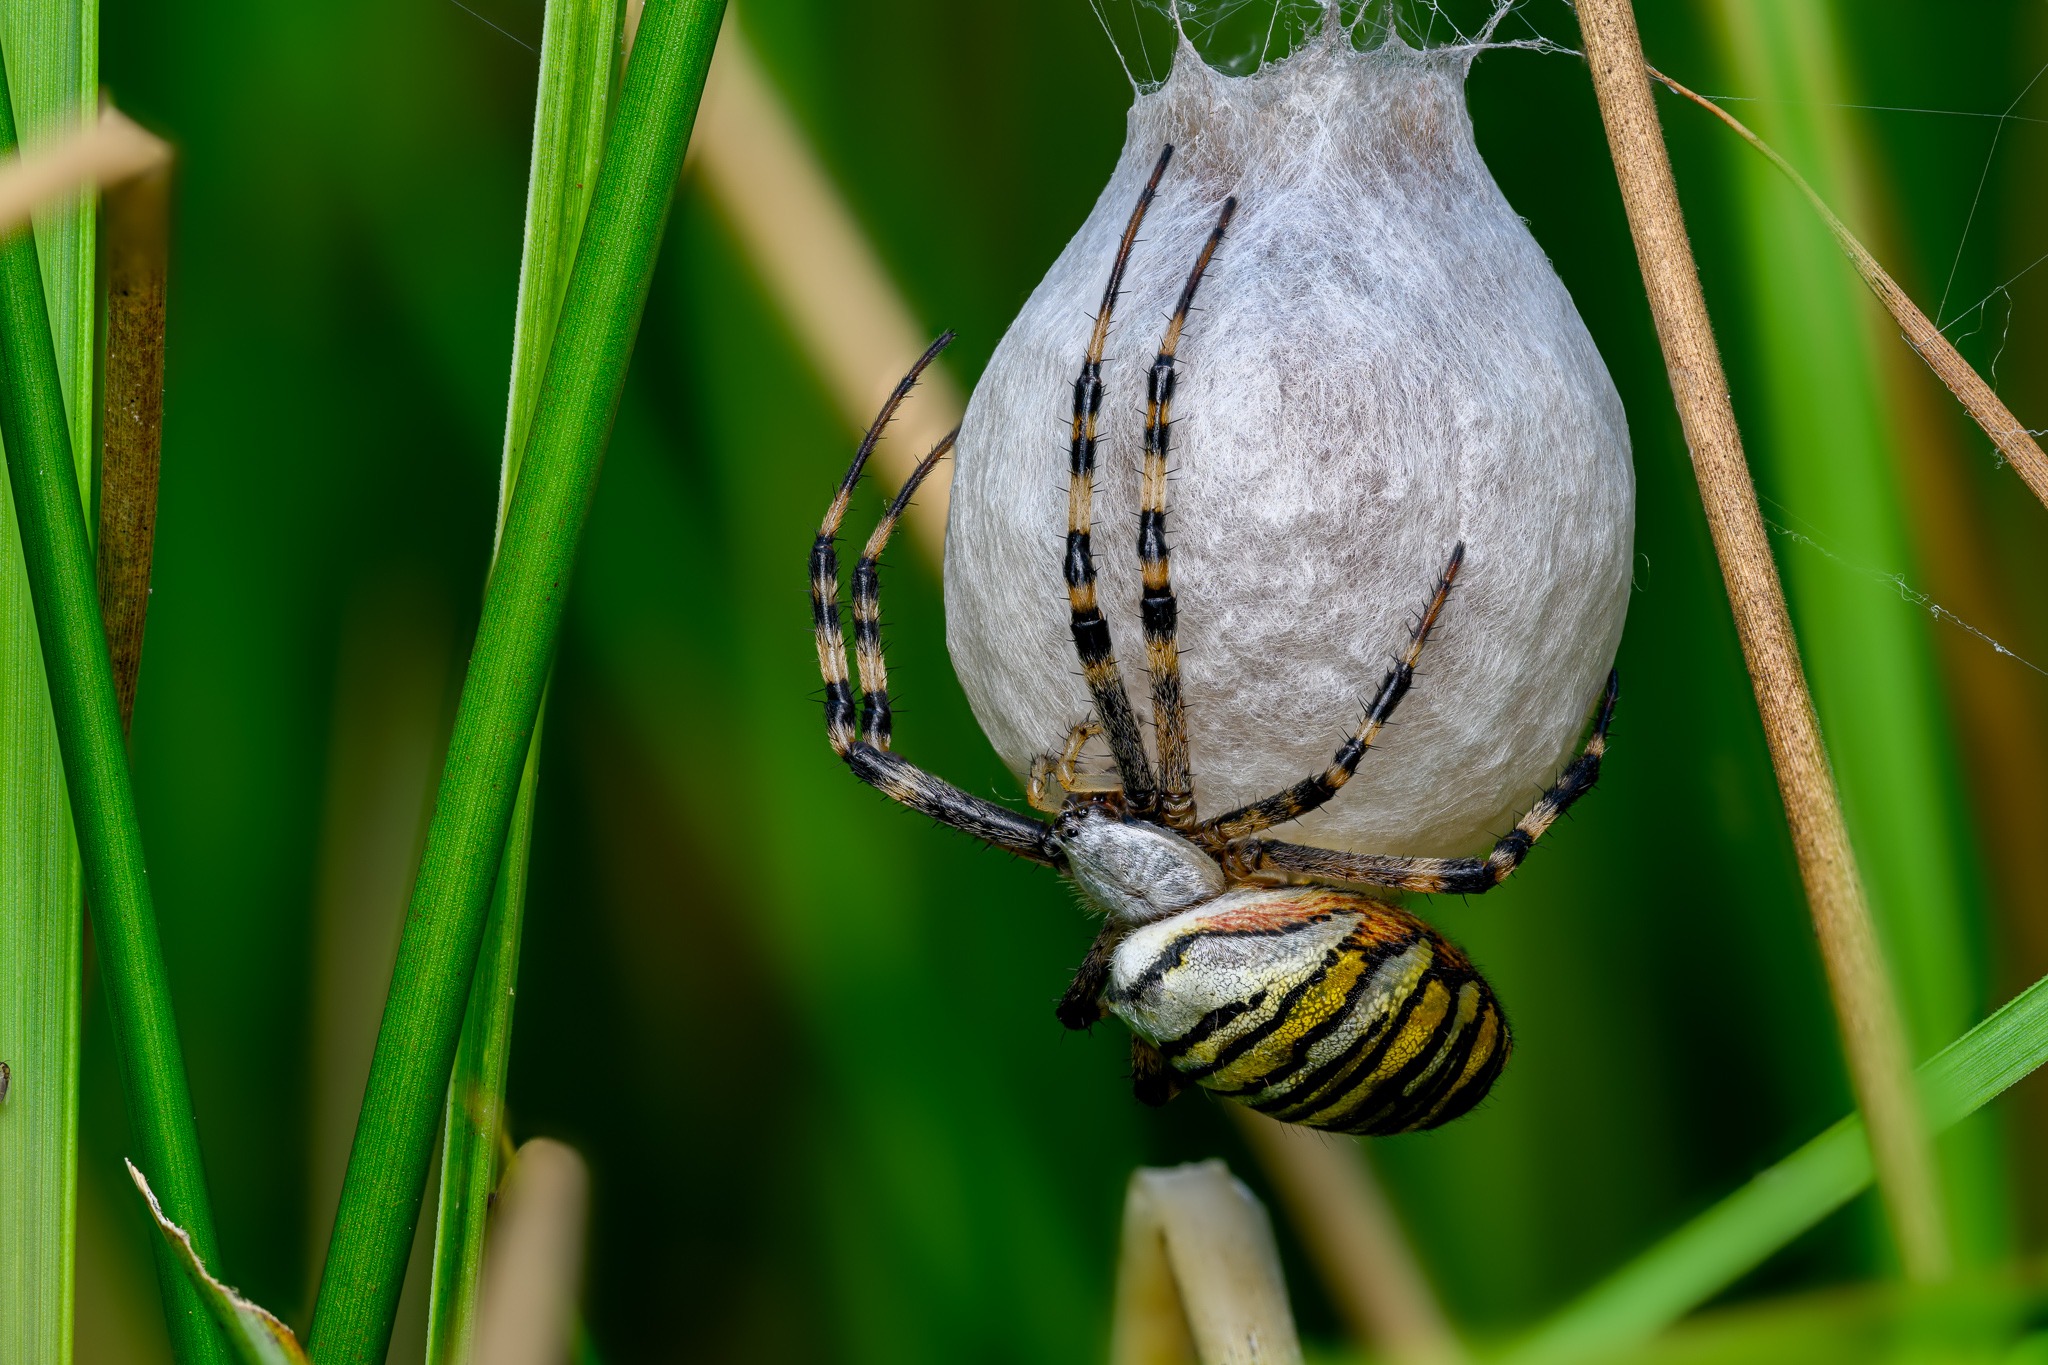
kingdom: Animalia
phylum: Arthropoda
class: Arachnida
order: Araneae
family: Araneidae
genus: Argiope
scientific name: Argiope bruennichi
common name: Hvepseedderkop
